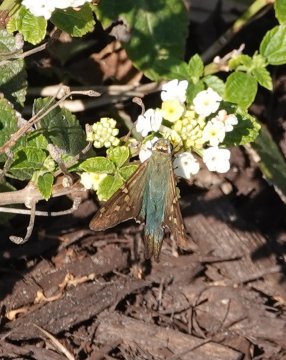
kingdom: Animalia
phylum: Arthropoda
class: Insecta
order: Lepidoptera
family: Hesperiidae
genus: Urbanus
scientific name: Urbanus proteus
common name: Long-tailed Skipper
